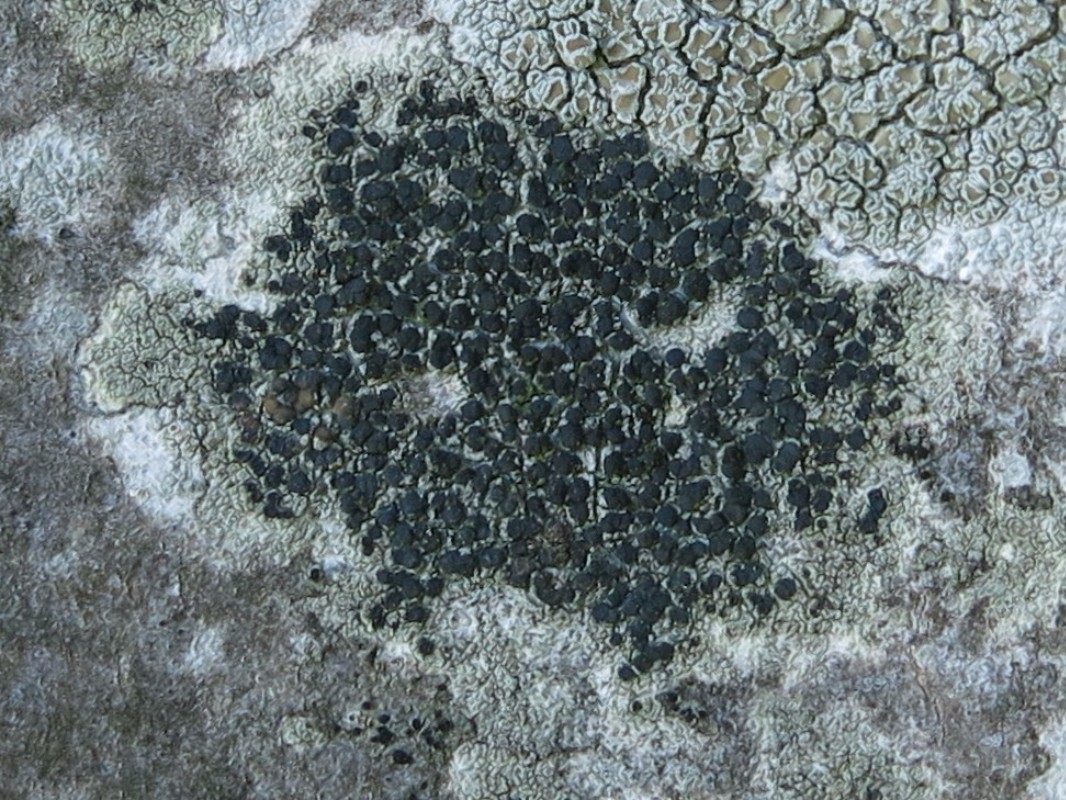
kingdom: Fungi
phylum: Ascomycota
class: Lecanoromycetes
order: Lecanorales
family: Lecanoraceae
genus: Lecidella
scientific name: Lecidella elaeochroma
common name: grågrøn skivelav
